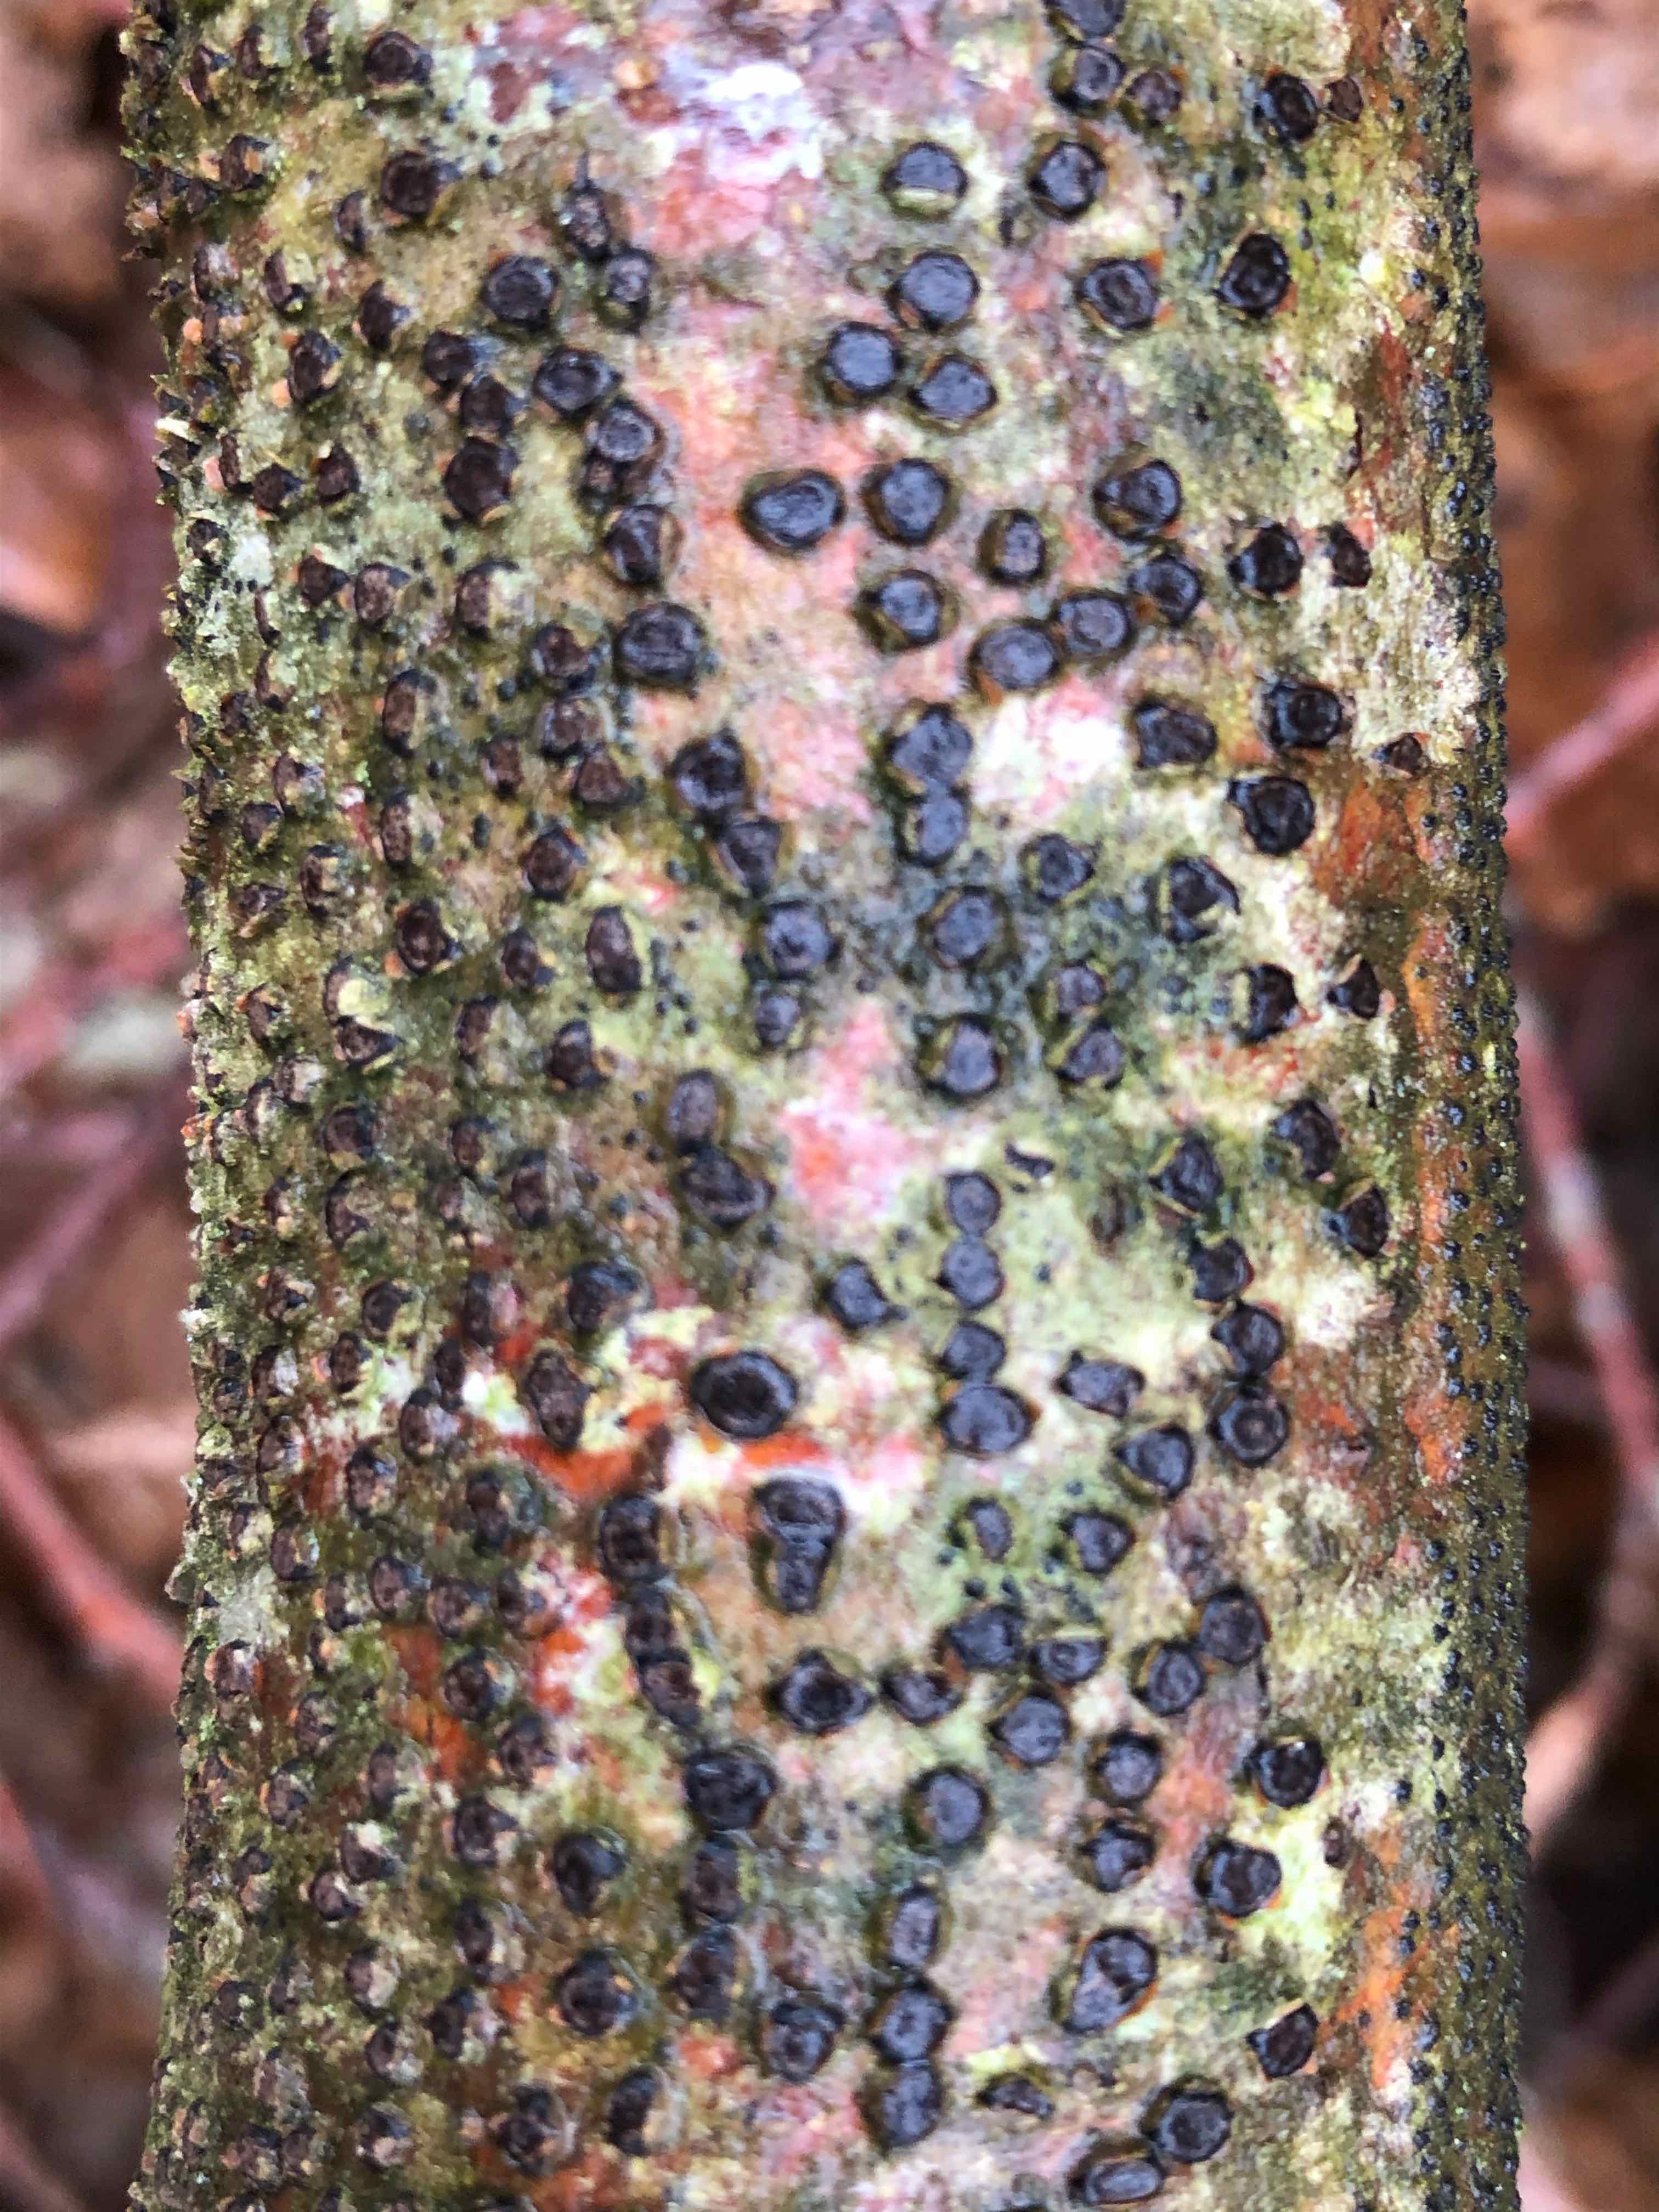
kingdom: Fungi
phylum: Ascomycota
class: Sordariomycetes
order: Xylariales
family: Diatrypaceae
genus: Diatrype
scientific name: Diatrype disciformis
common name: kant-kulskorpe
